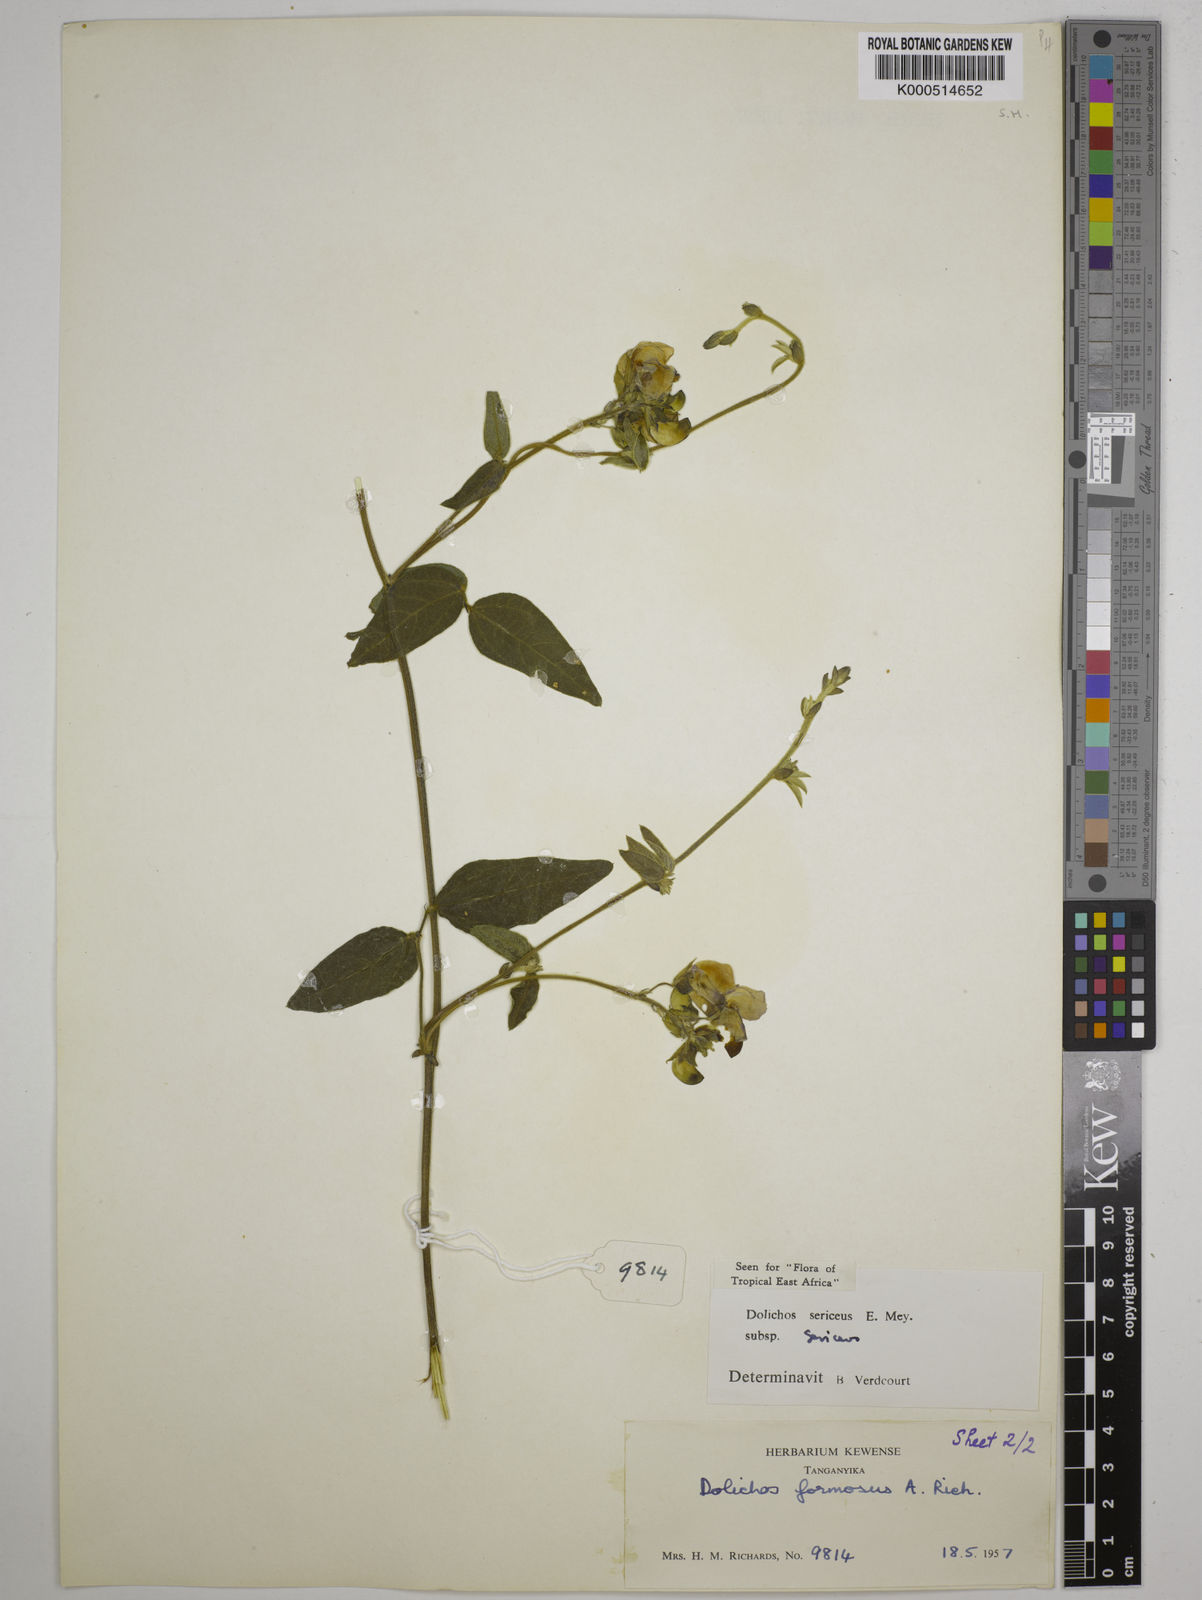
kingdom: Plantae
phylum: Tracheophyta
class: Magnoliopsida
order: Fabales
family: Fabaceae
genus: Dolichos
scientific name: Dolichos sericeus
